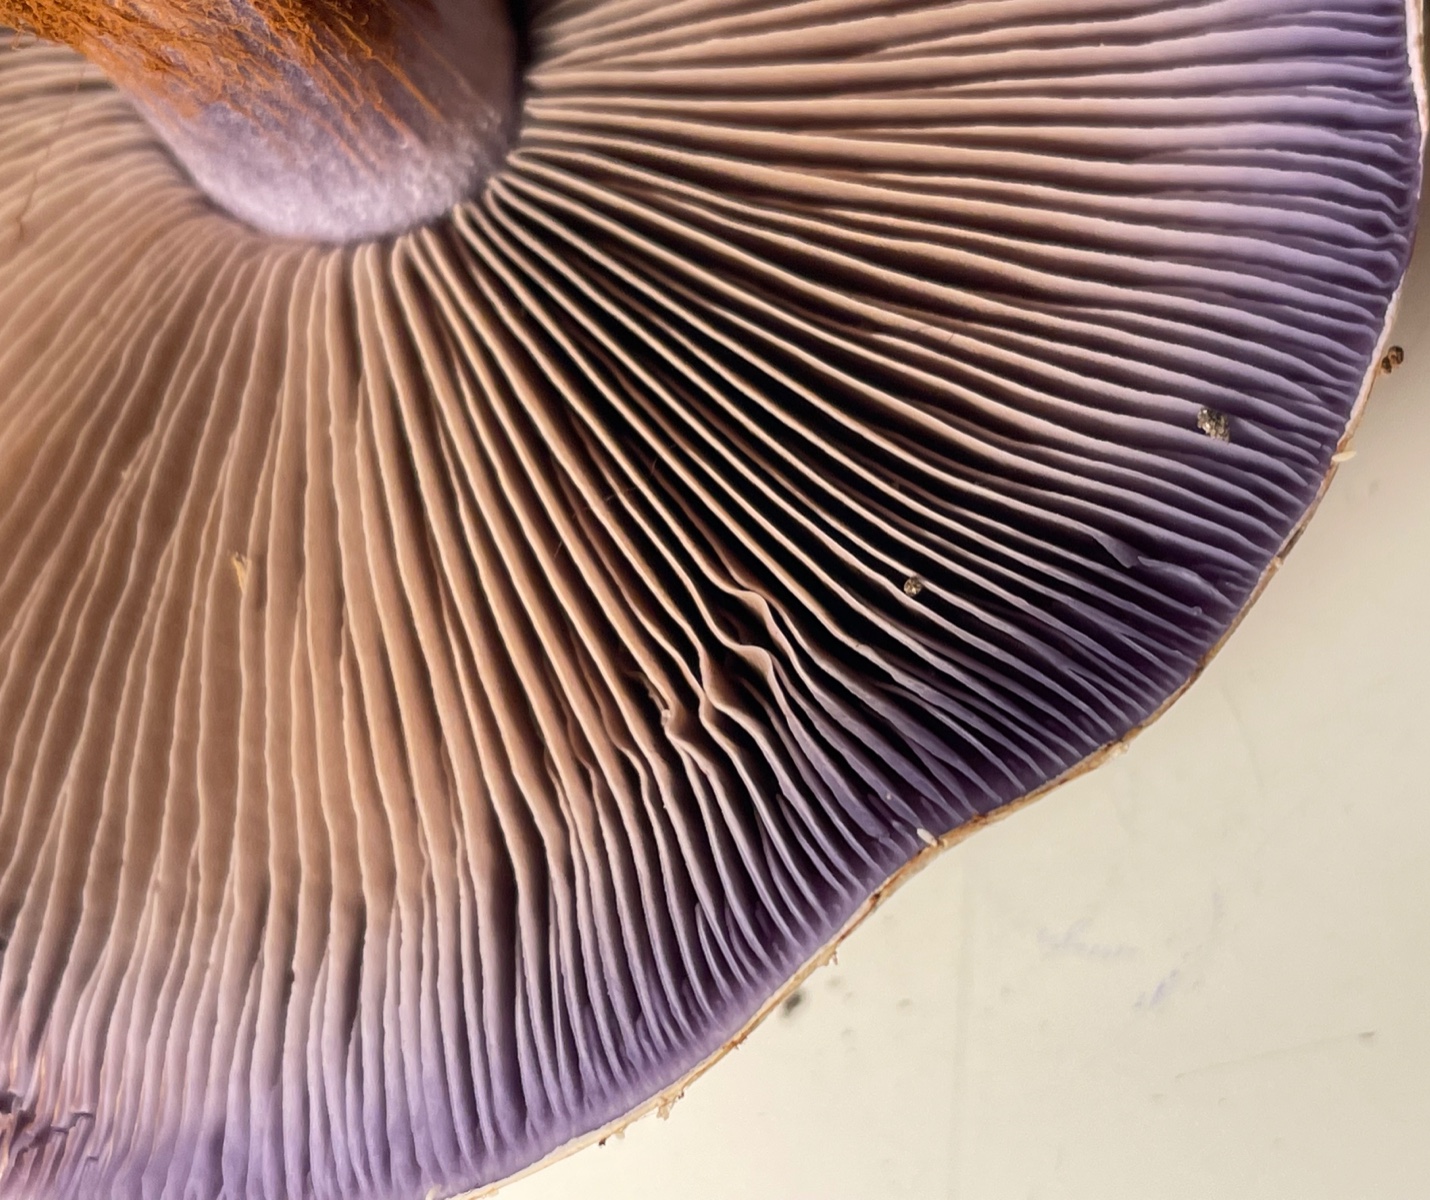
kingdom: Fungi
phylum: Basidiomycota
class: Agaricomycetes
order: Agaricales
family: Cortinariaceae
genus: Cortinarius
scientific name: Cortinarius largus
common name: violetrandet slørhat
